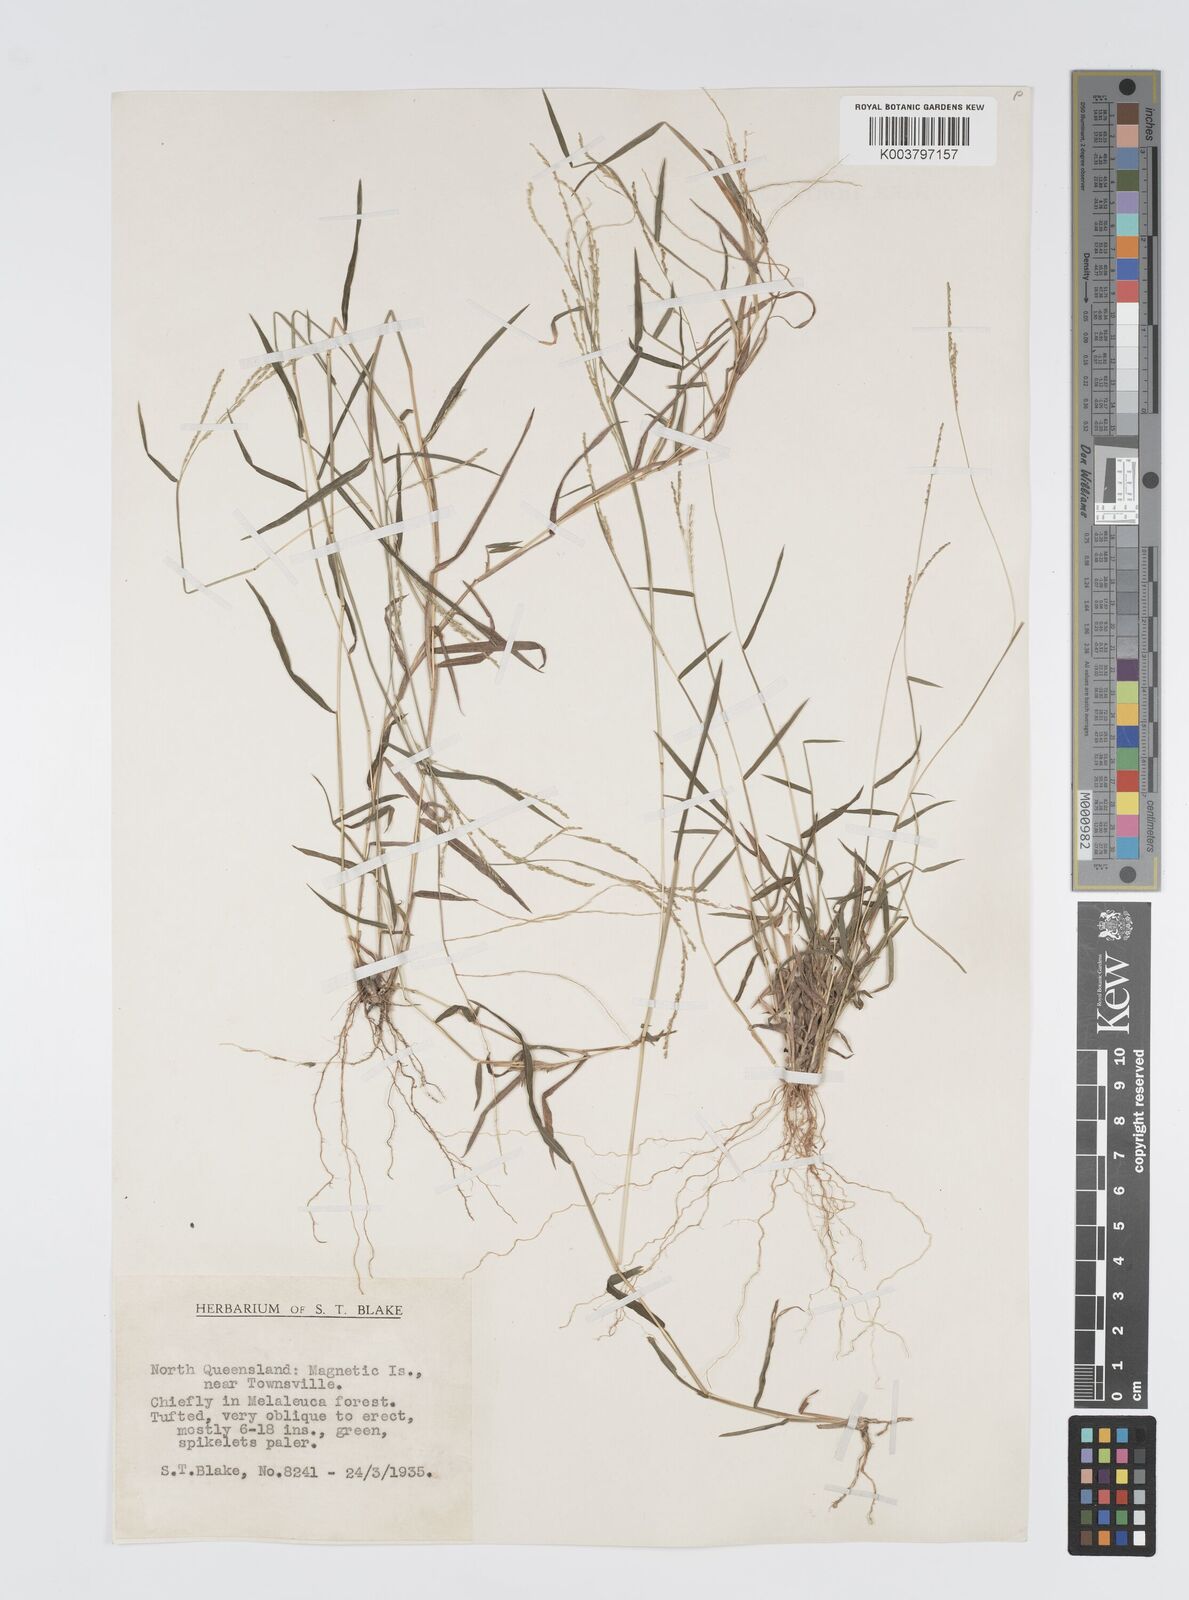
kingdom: Plantae
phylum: Tracheophyta
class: Liliopsida
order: Poales
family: Poaceae
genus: Digitaria
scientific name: Digitaria spec
